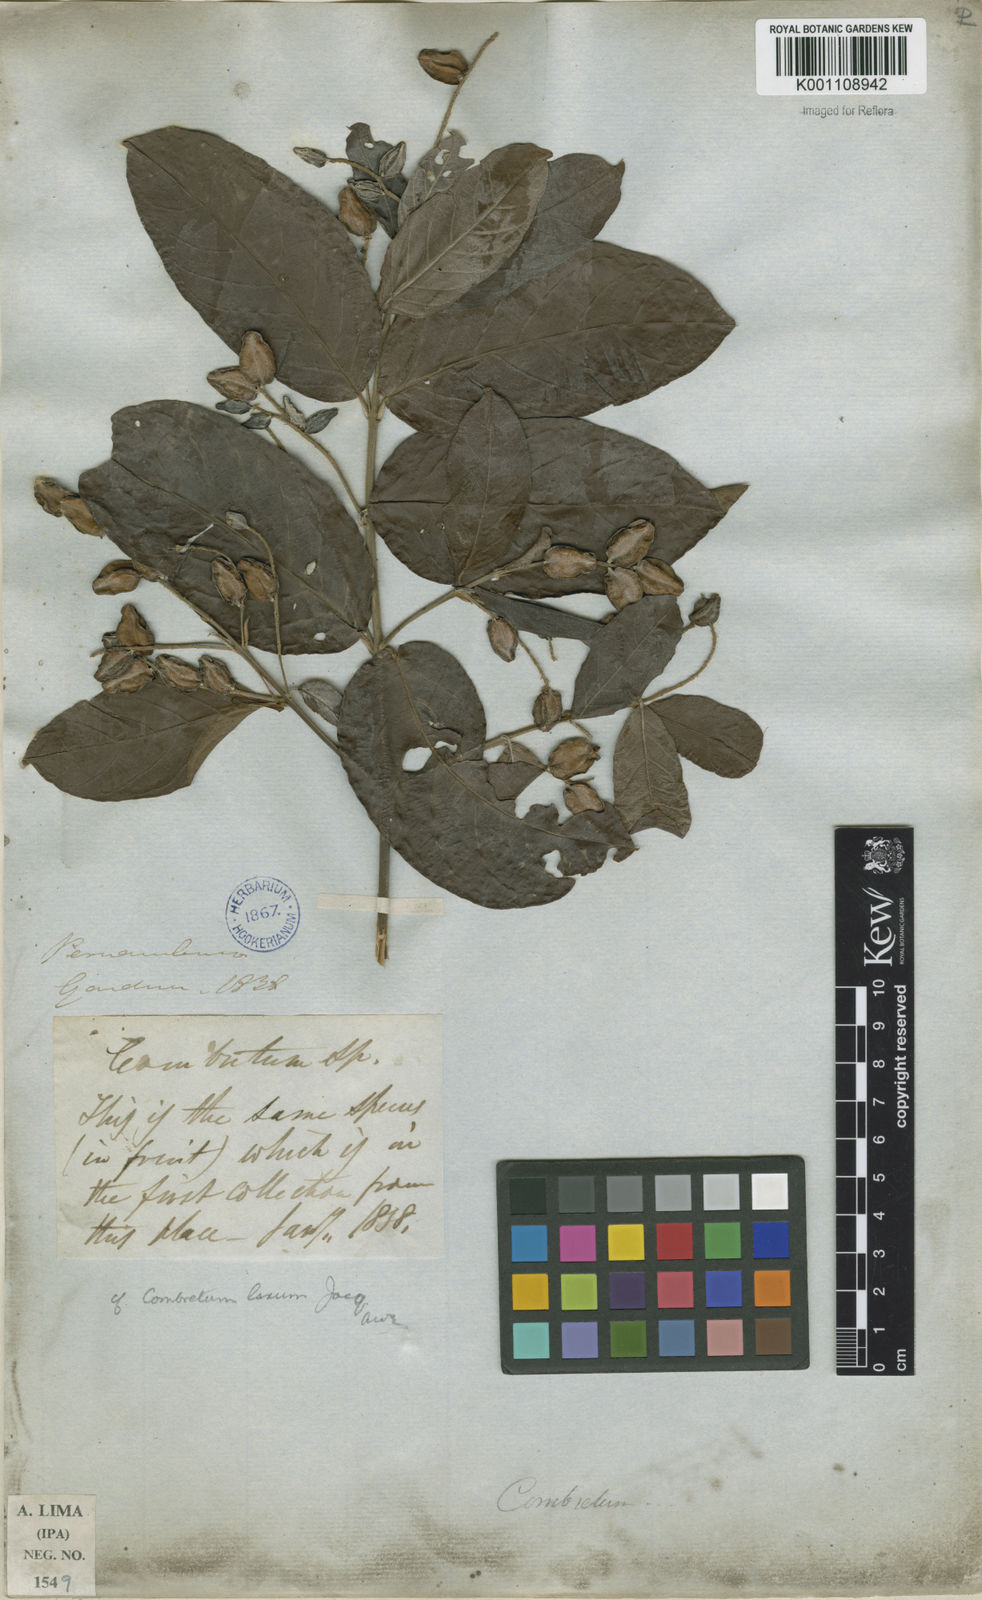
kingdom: Plantae
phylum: Tracheophyta
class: Magnoliopsida
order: Myrtales
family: Combretaceae
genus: Combretum
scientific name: Combretum laxum
